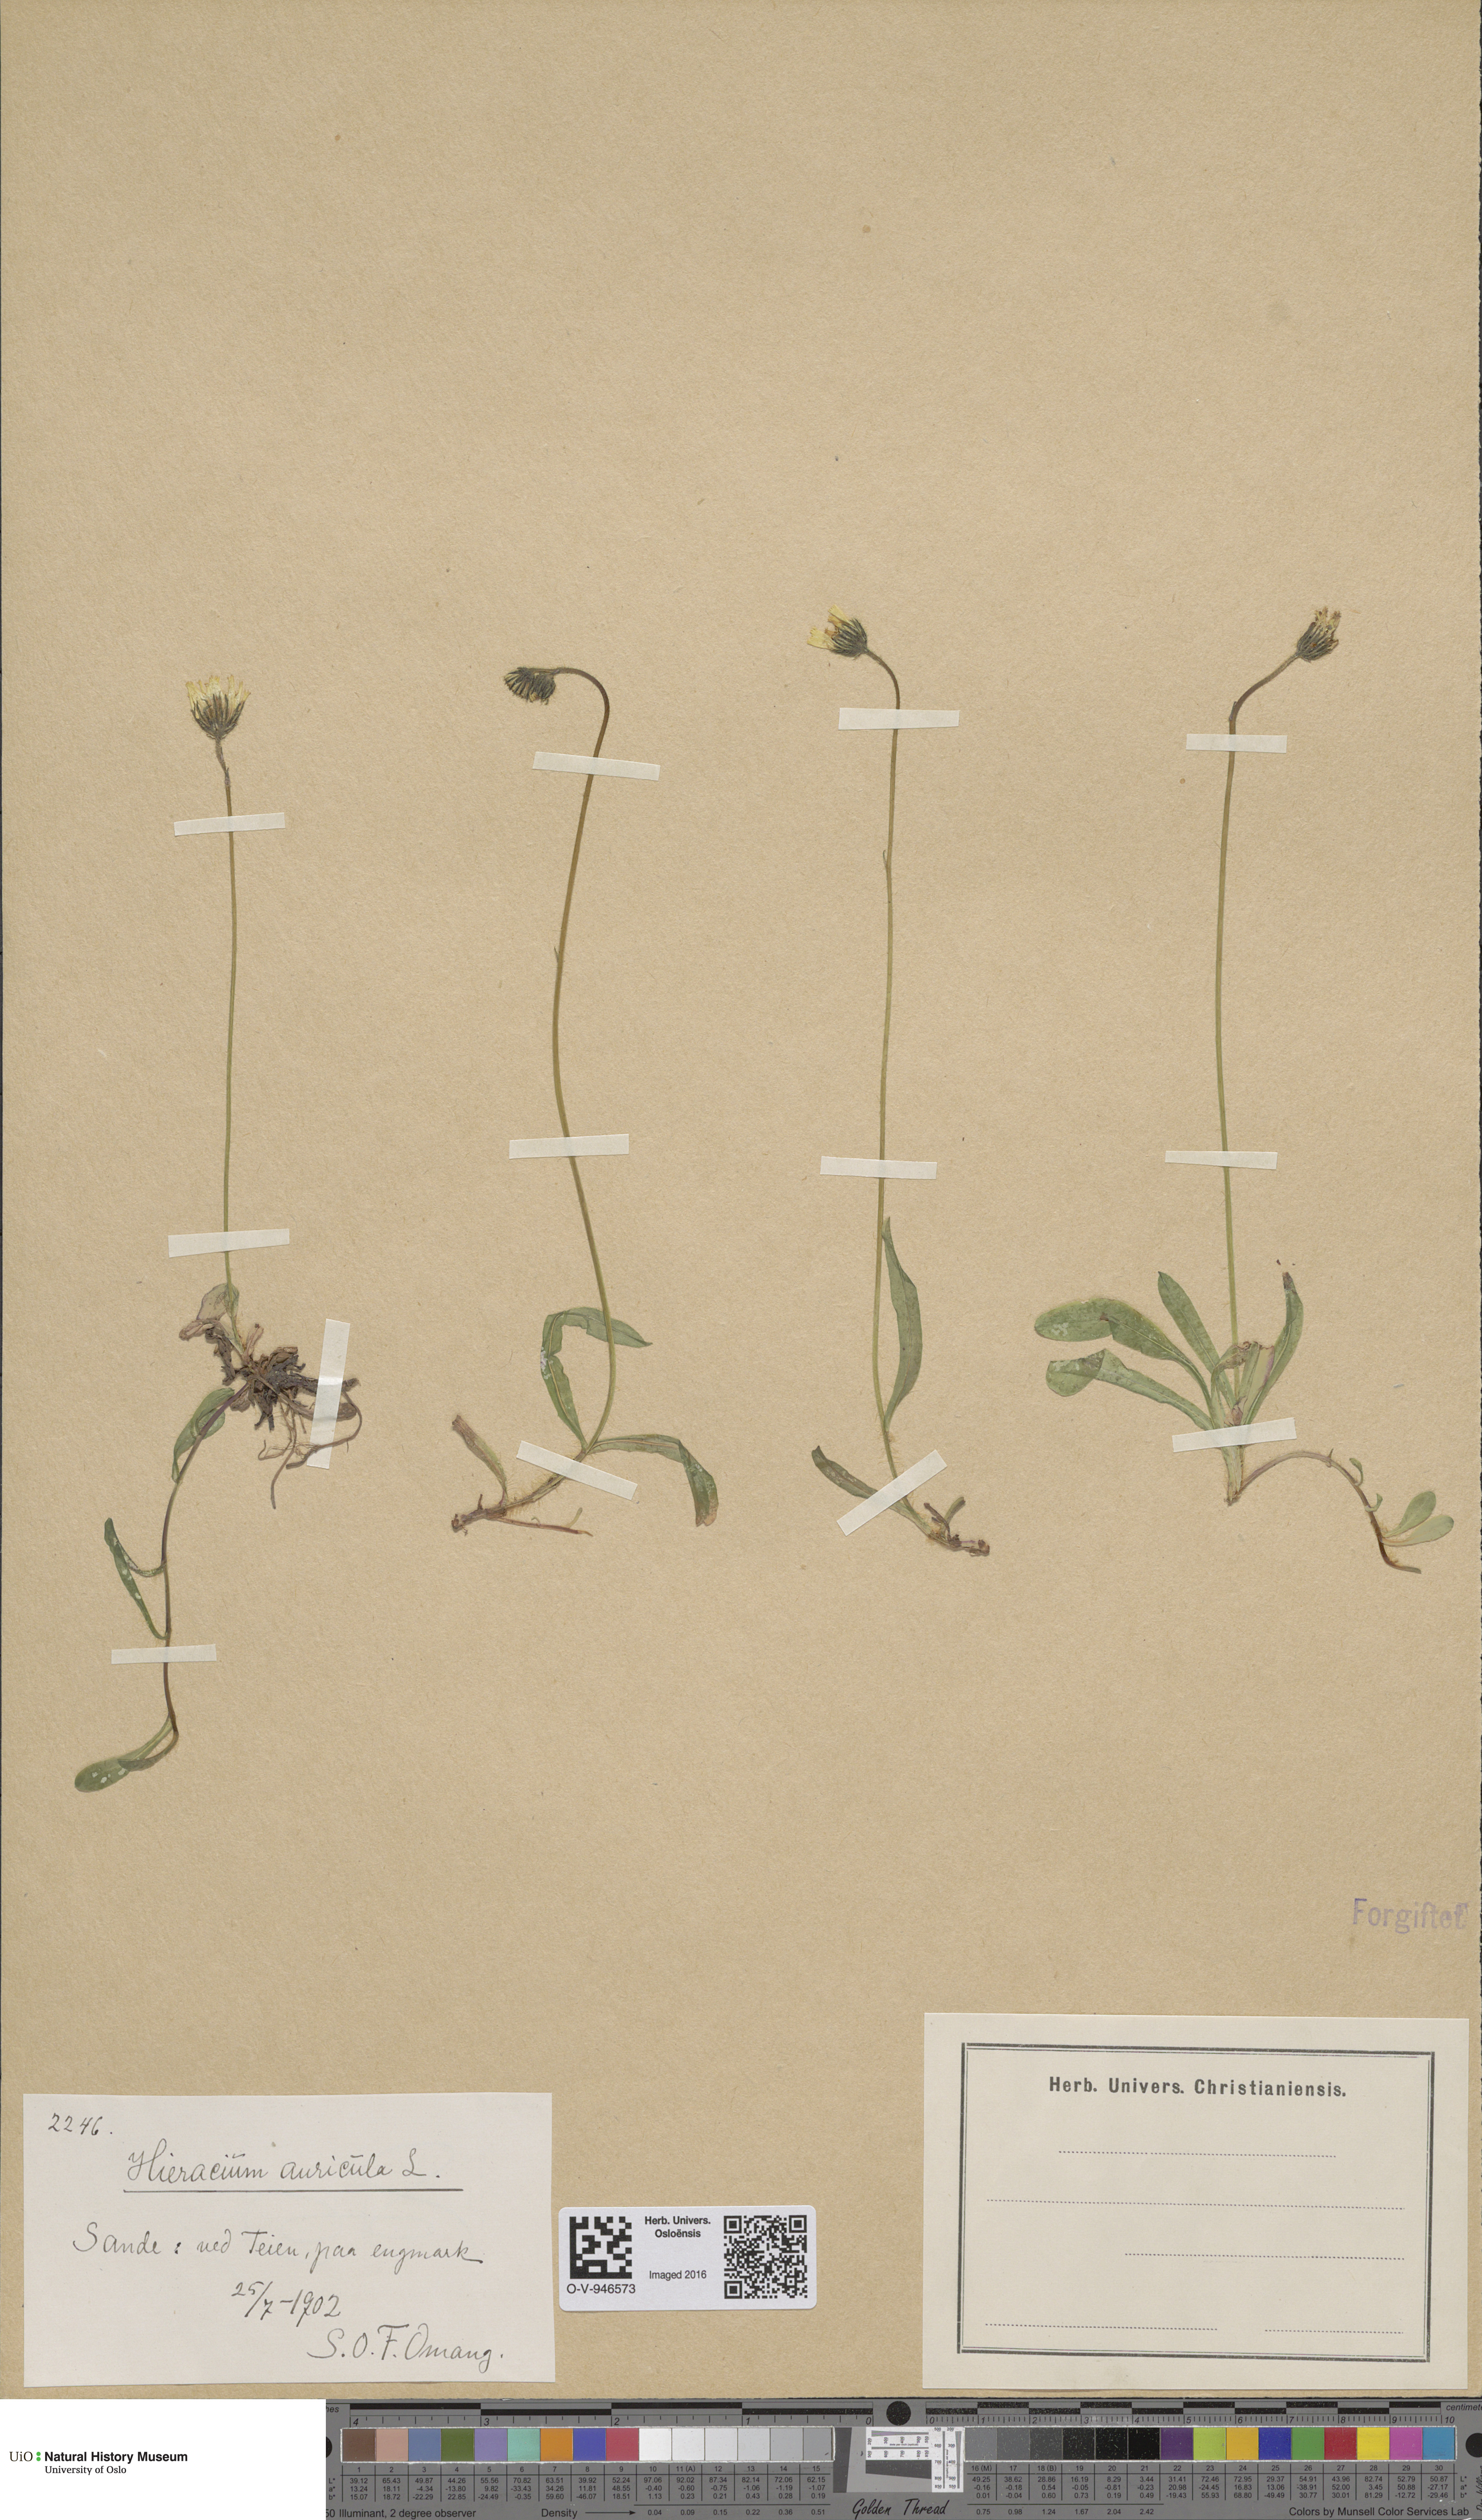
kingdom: Plantae
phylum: Tracheophyta
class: Magnoliopsida
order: Asterales
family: Asteraceae
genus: Pilosella
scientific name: Pilosella lactucella
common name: Glaucous fox-and-cubs
